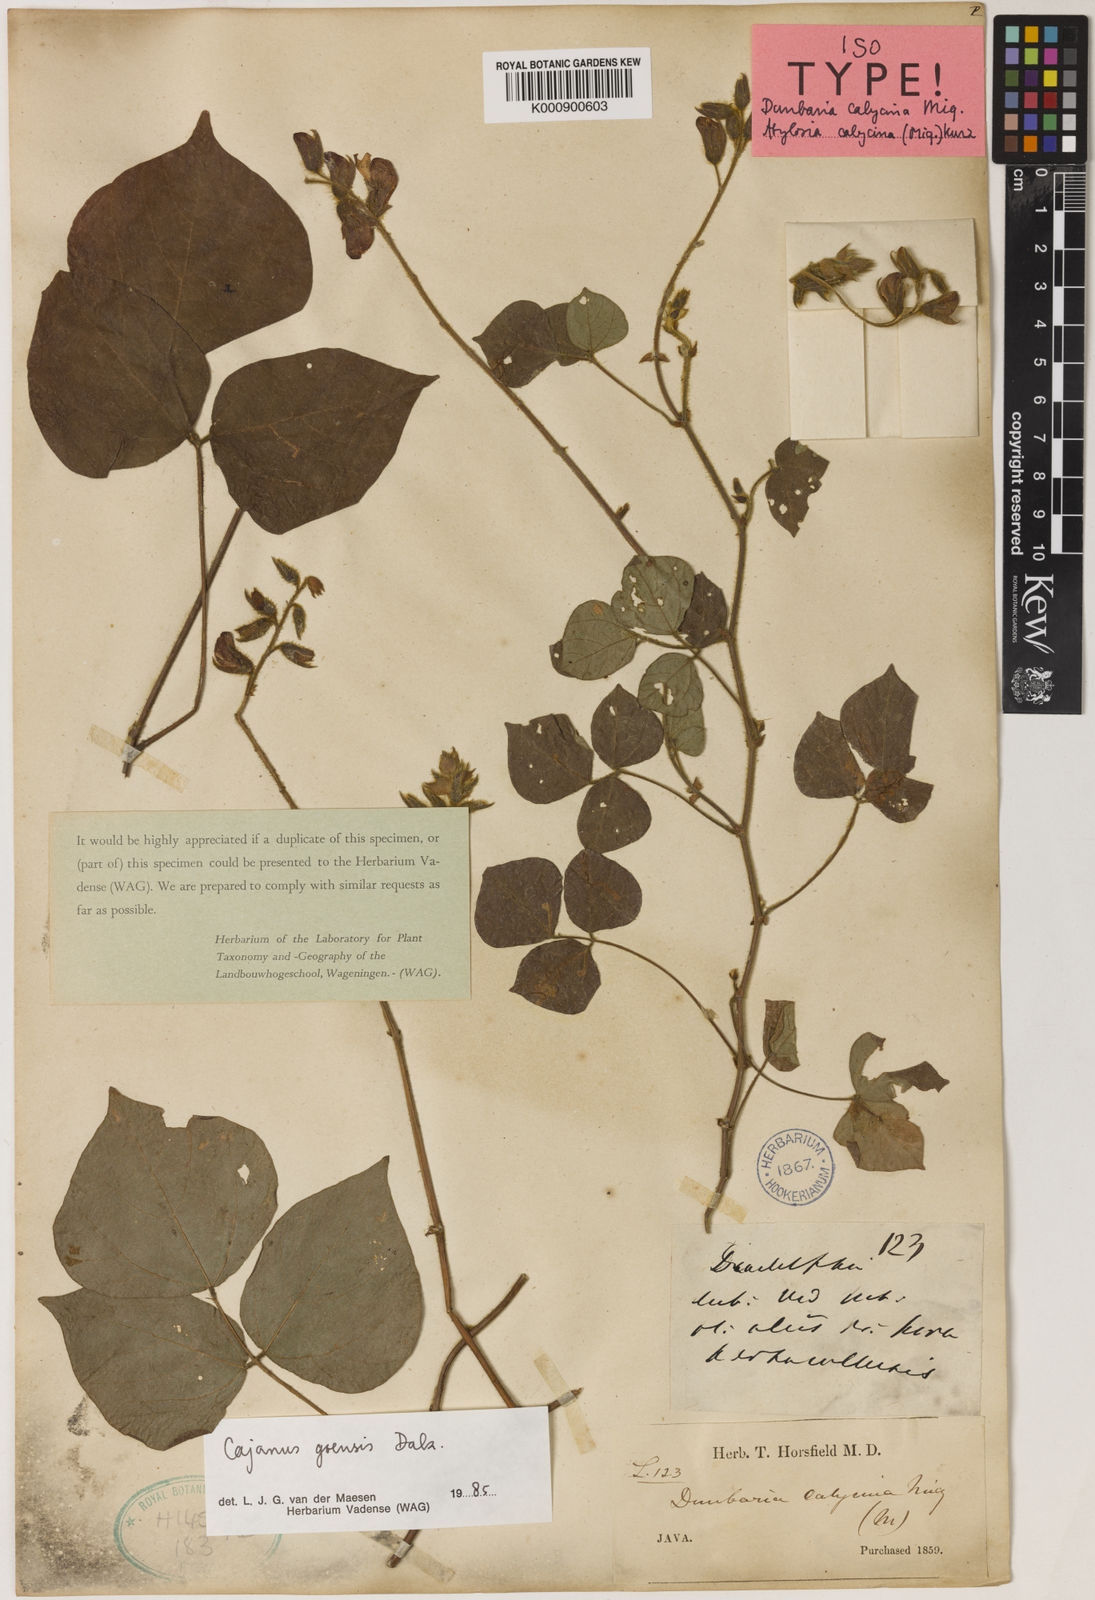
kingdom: Plantae
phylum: Tracheophyta
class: Magnoliopsida
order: Fabales
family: Fabaceae
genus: Cajanus
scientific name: Cajanus goensis
